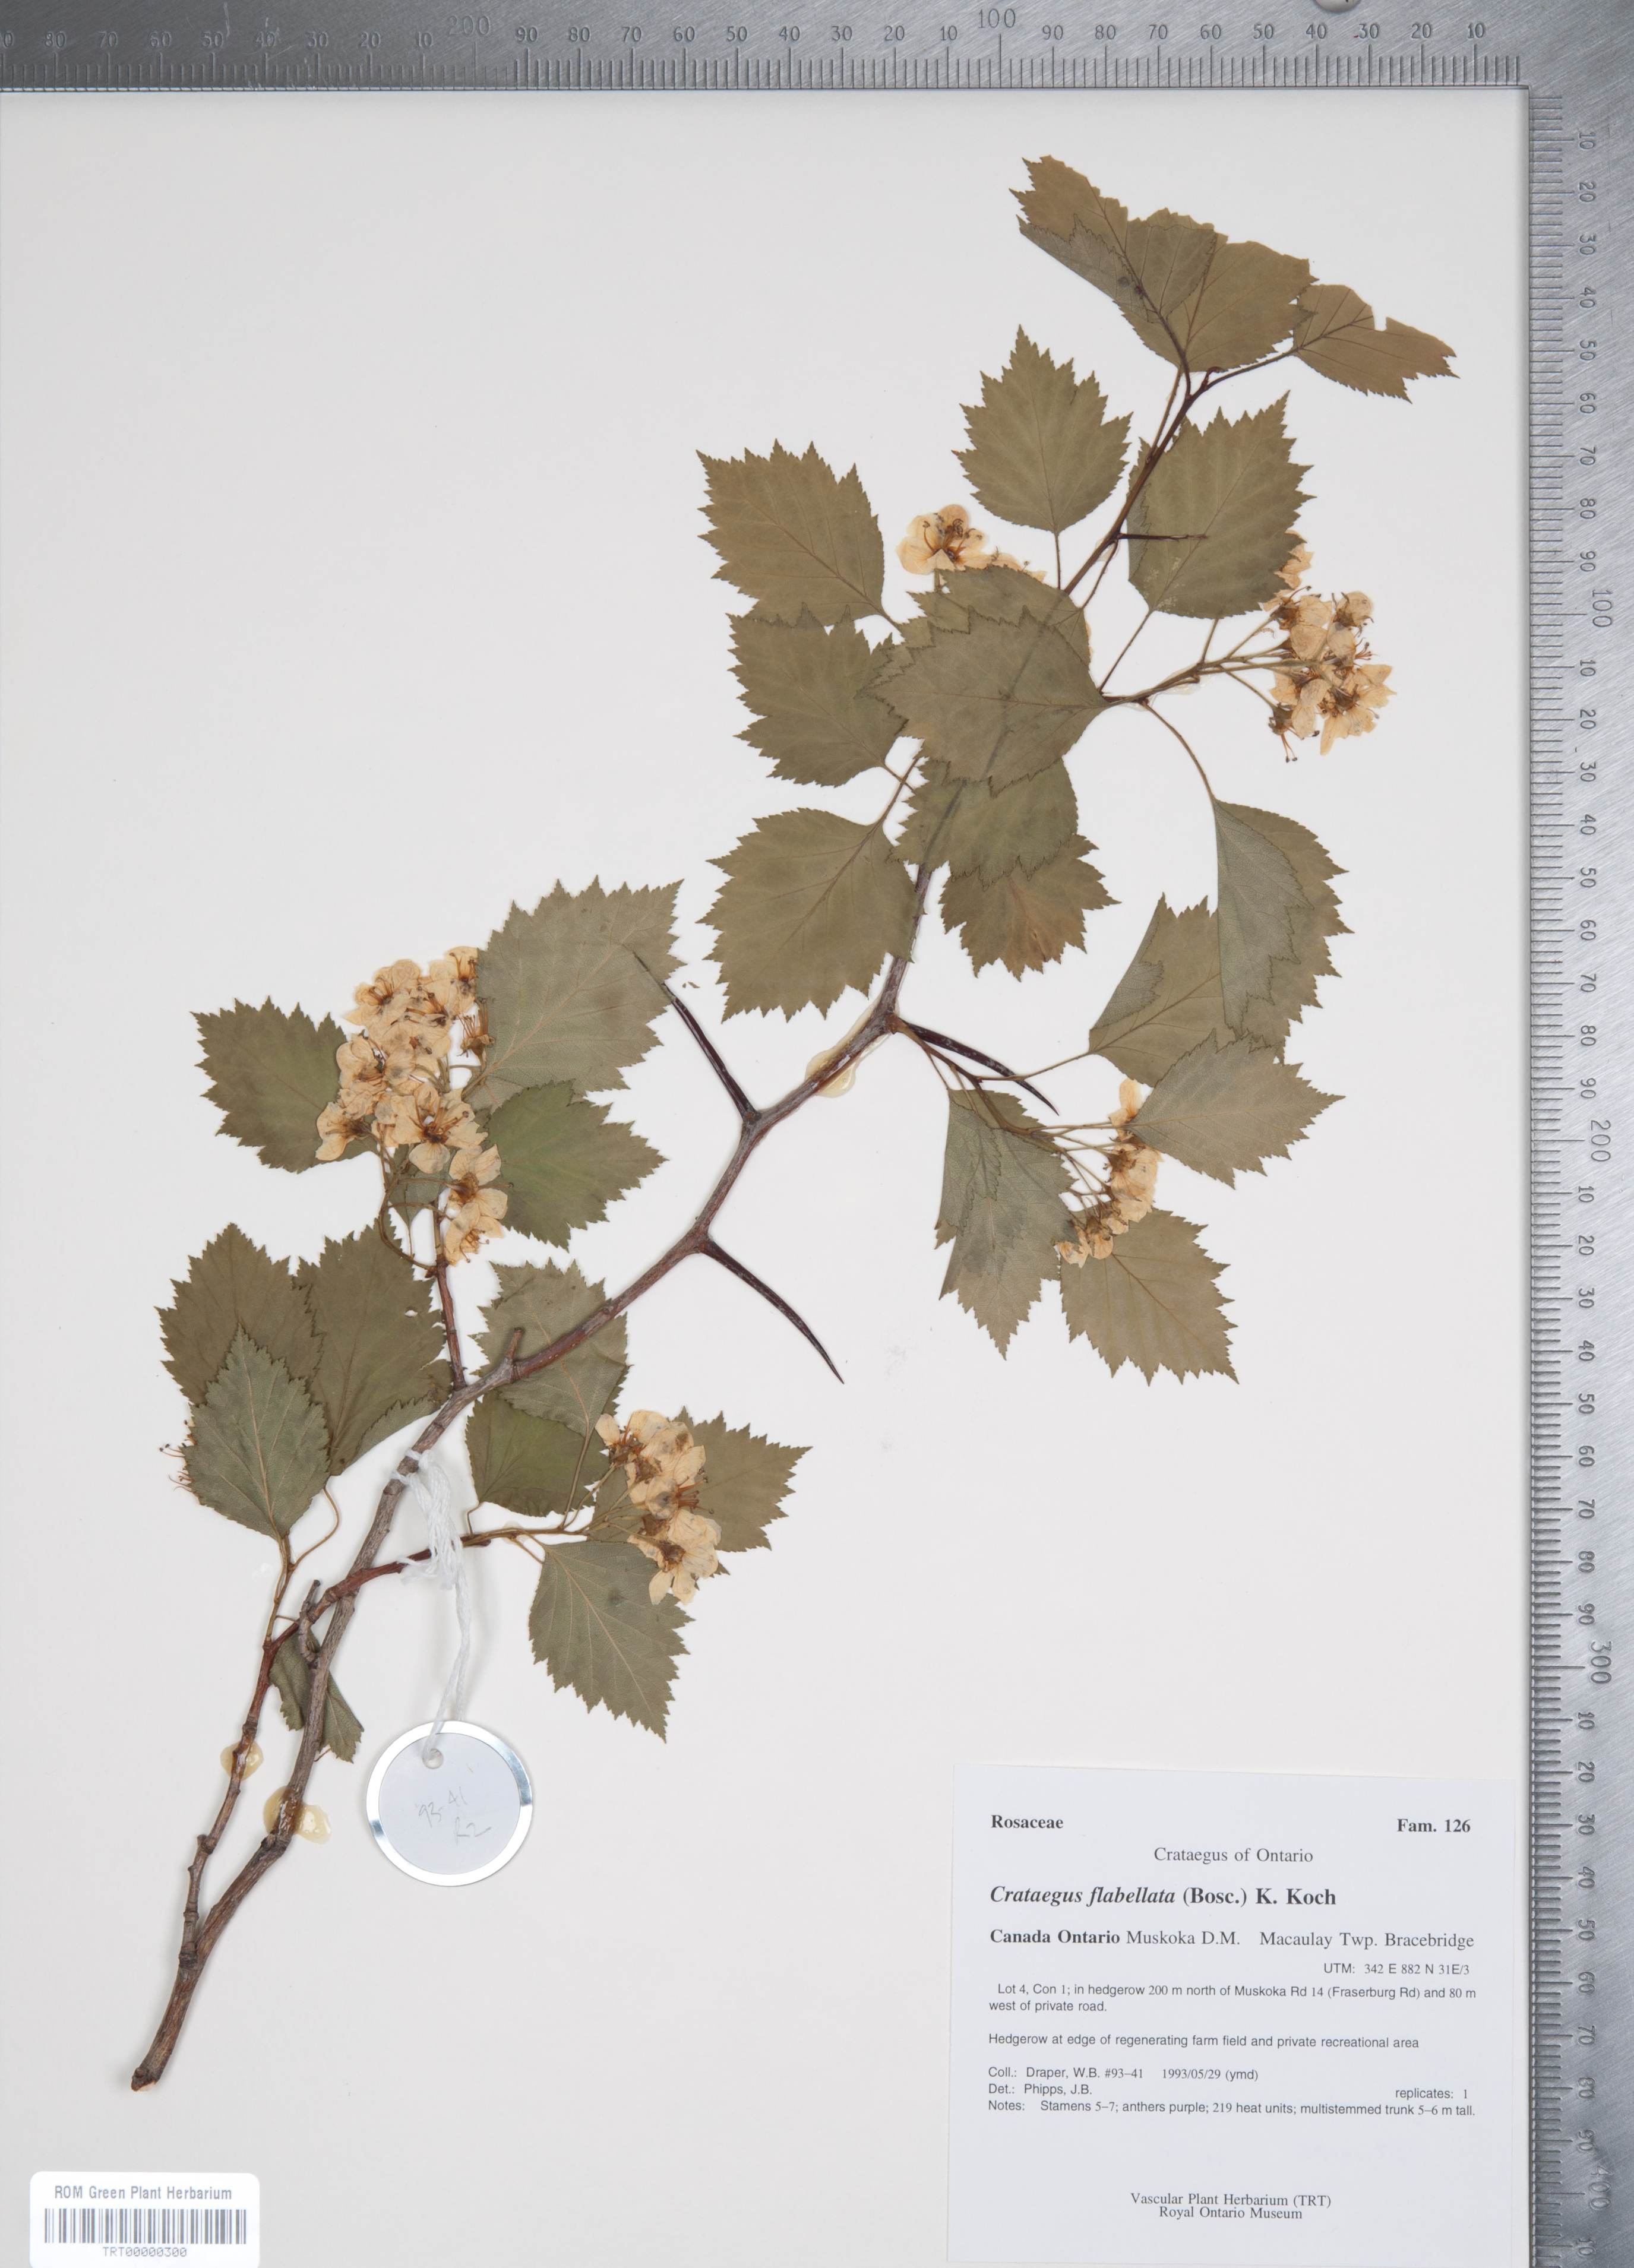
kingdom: Plantae
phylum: Tracheophyta
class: Magnoliopsida
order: Rosales
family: Rosaceae
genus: Crataegus
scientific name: Crataegus flabellata
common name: Bosc's hawthorn
